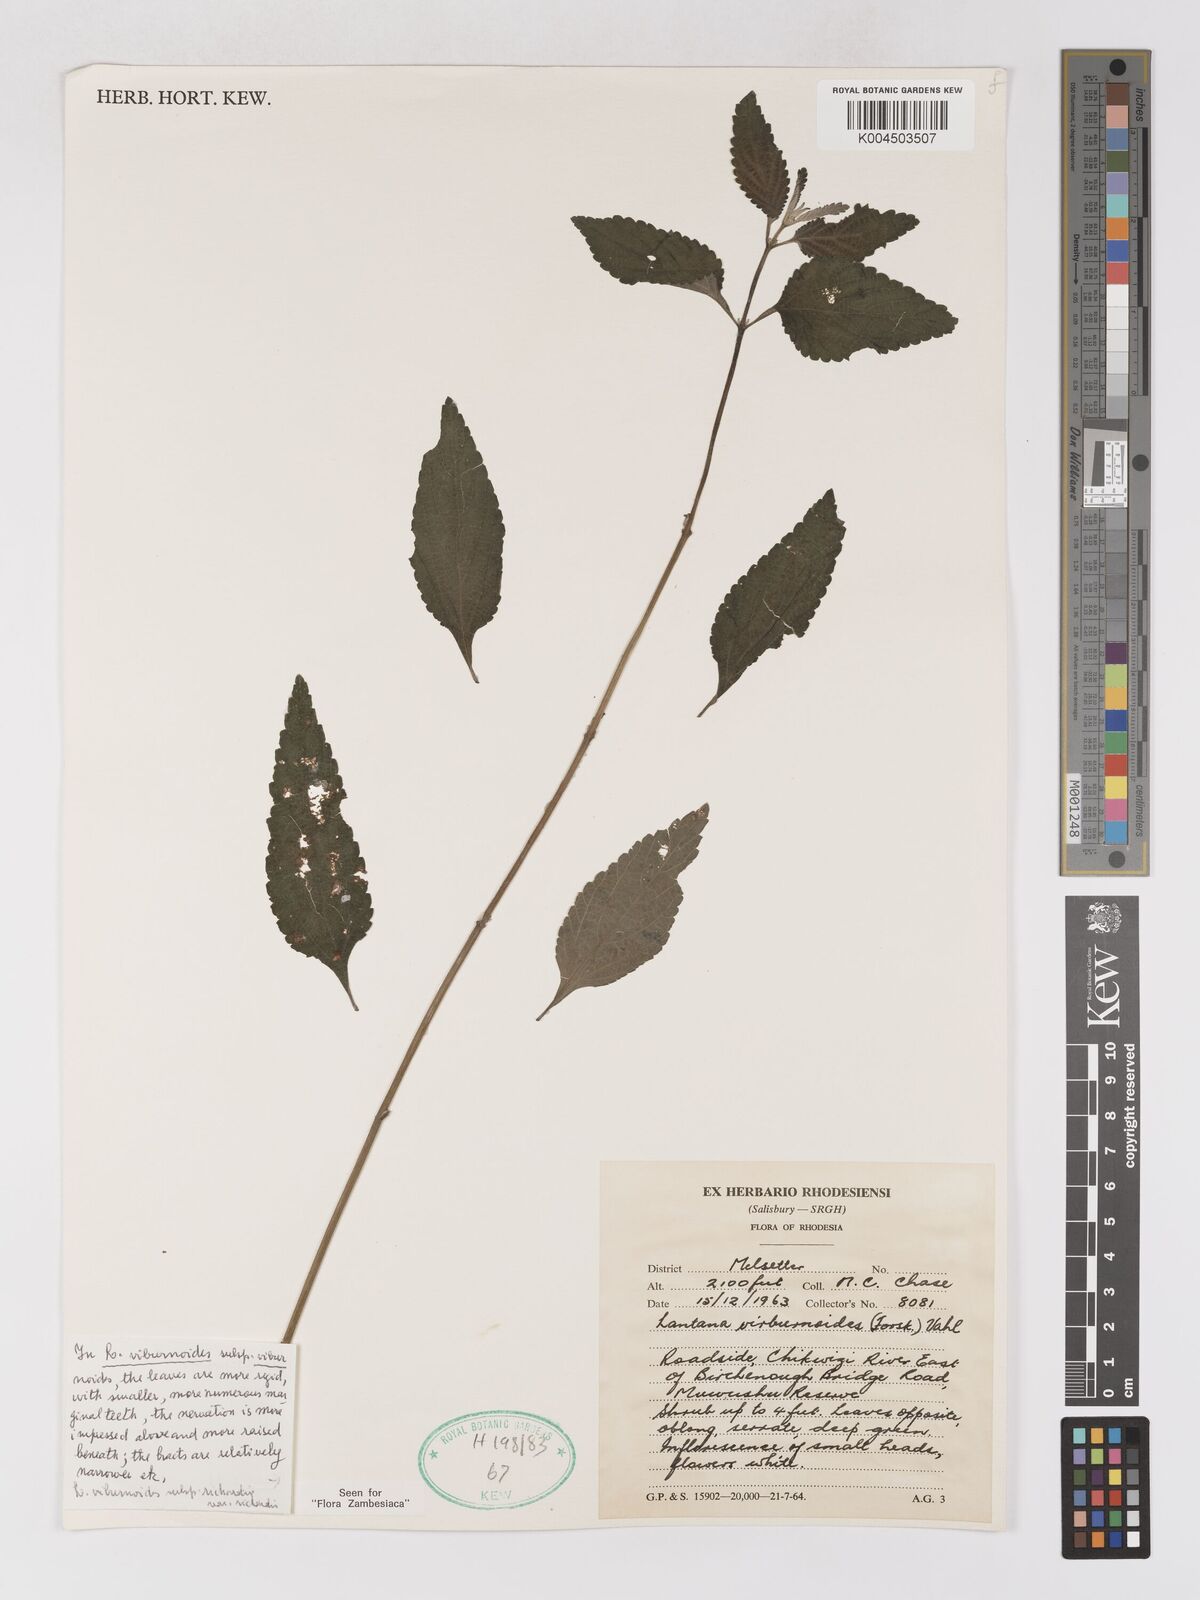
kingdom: Plantae
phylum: Tracheophyta
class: Magnoliopsida
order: Lamiales
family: Verbenaceae
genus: Lantana
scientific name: Lantana
